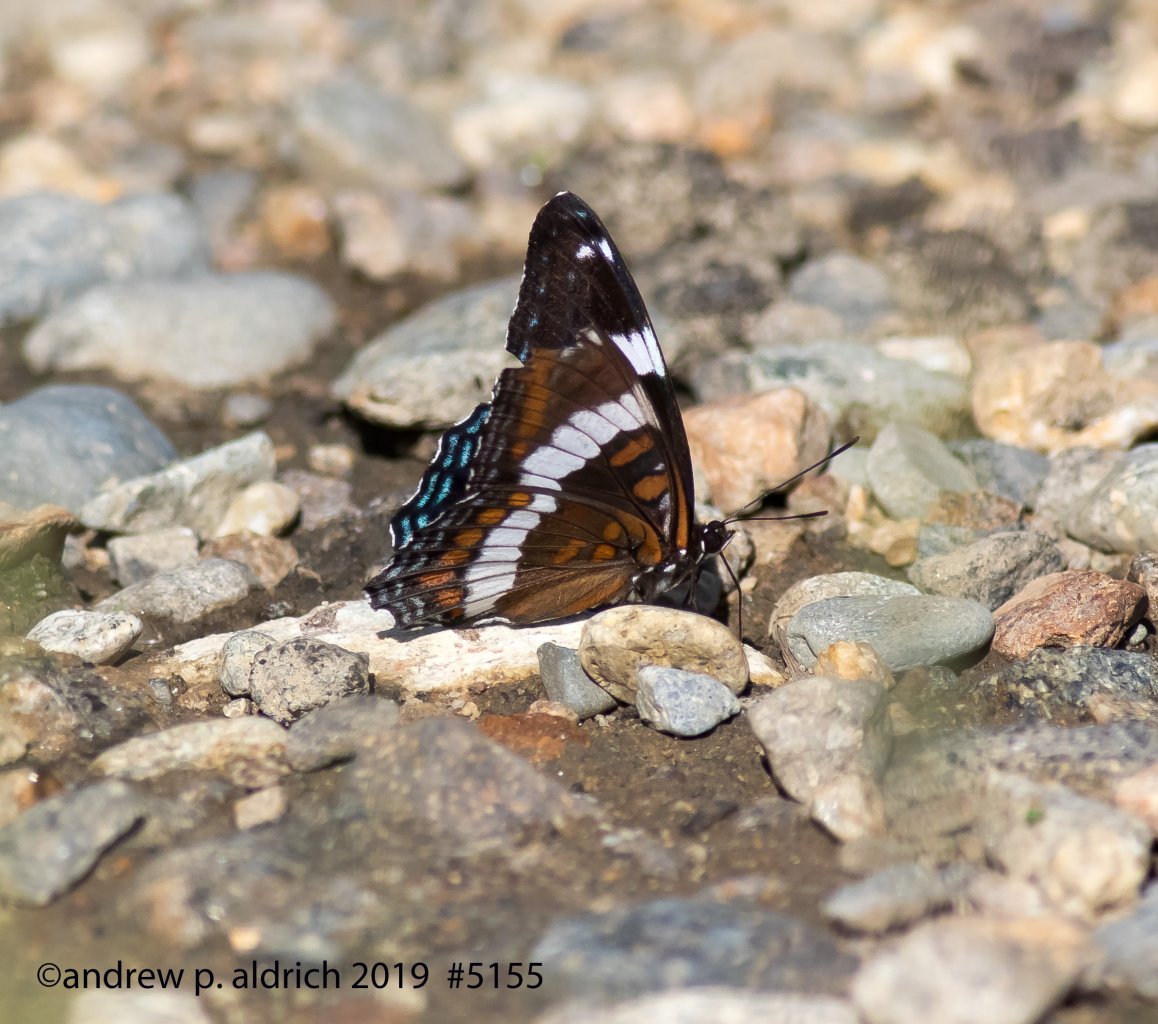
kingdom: Animalia
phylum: Arthropoda
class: Insecta
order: Lepidoptera
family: Nymphalidae
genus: Limenitis
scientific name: Limenitis arthemis
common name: Red-spotted Admiral
